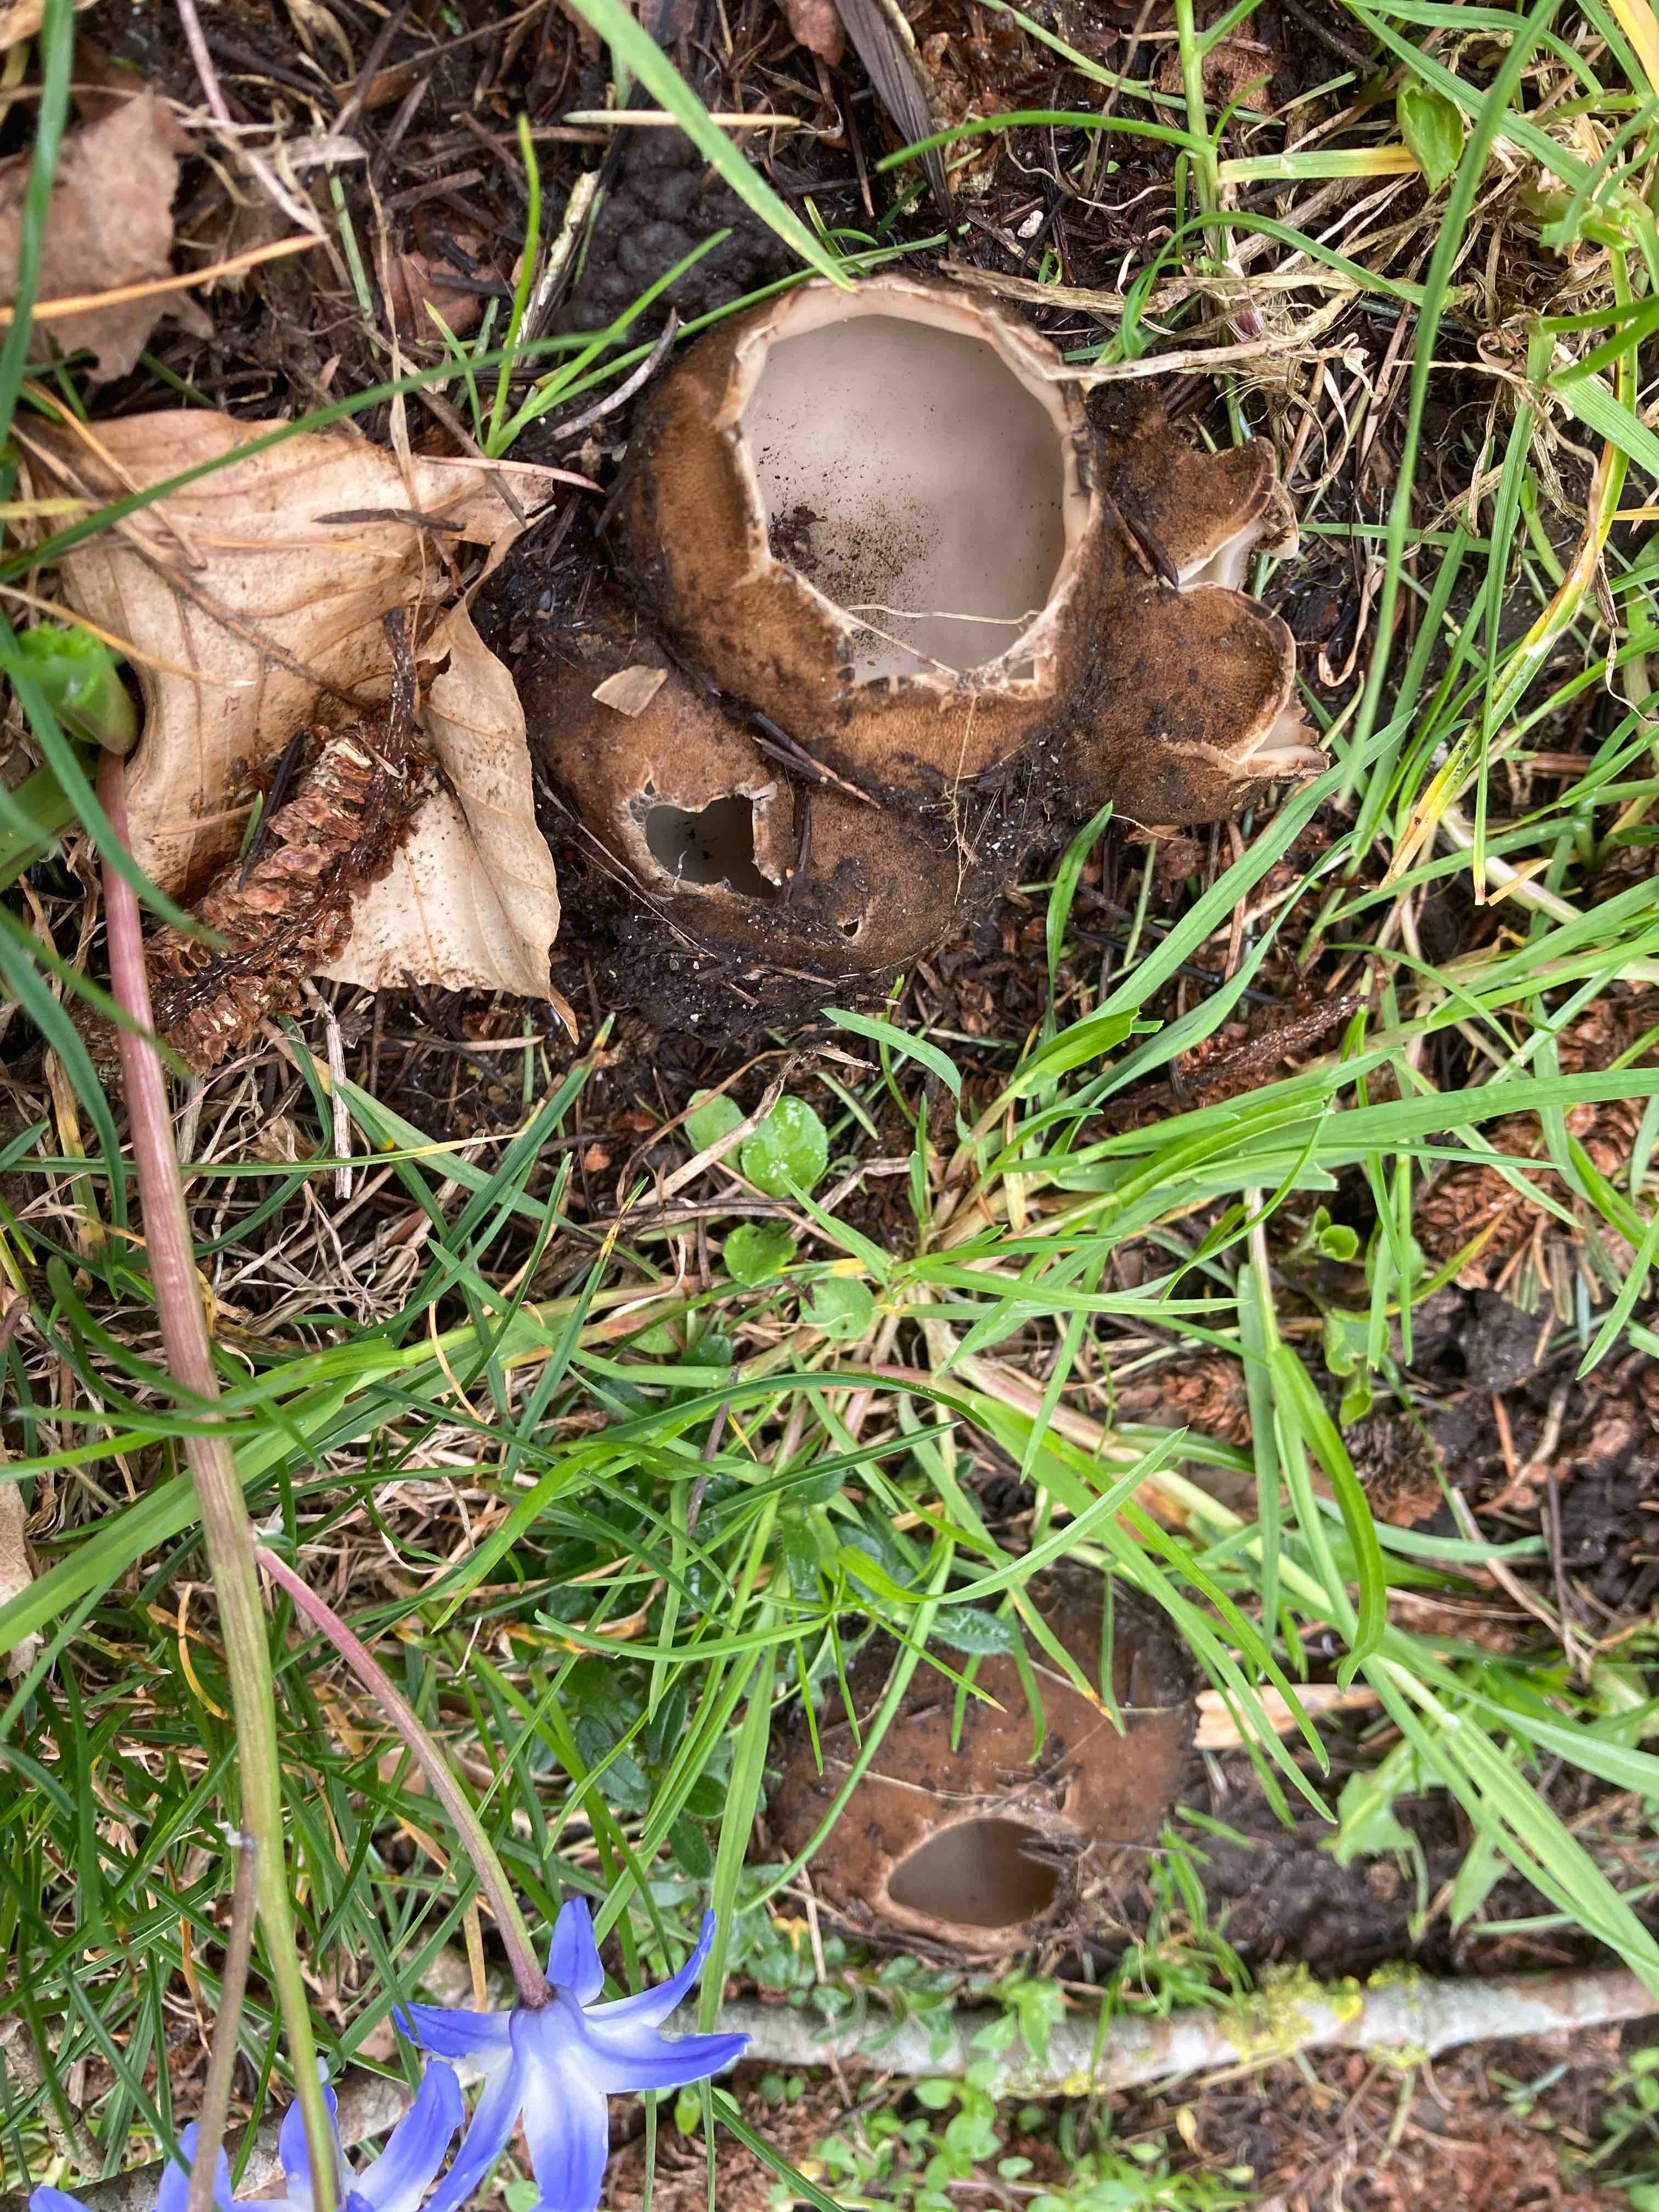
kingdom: Fungi
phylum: Ascomycota
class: Pezizomycetes
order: Pezizales
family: Pyronemataceae
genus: Geopora
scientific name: Geopora sumneriana
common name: vår-jordbæger
